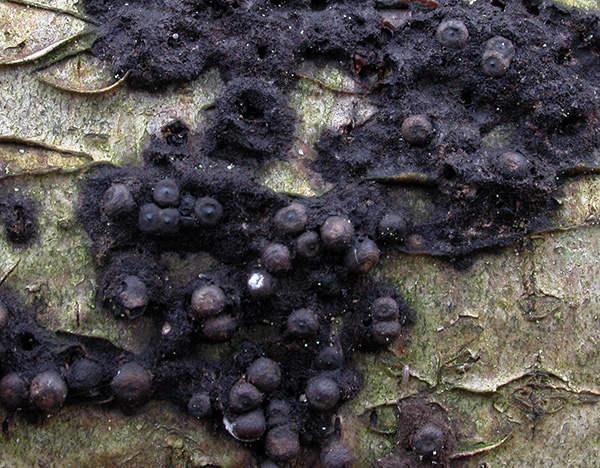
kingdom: Fungi
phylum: Ascomycota
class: Sordariomycetes
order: Xylariales
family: Xylariaceae
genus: Rosellinia
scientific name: Rosellinia corticium
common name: måtte-kulkaviar
